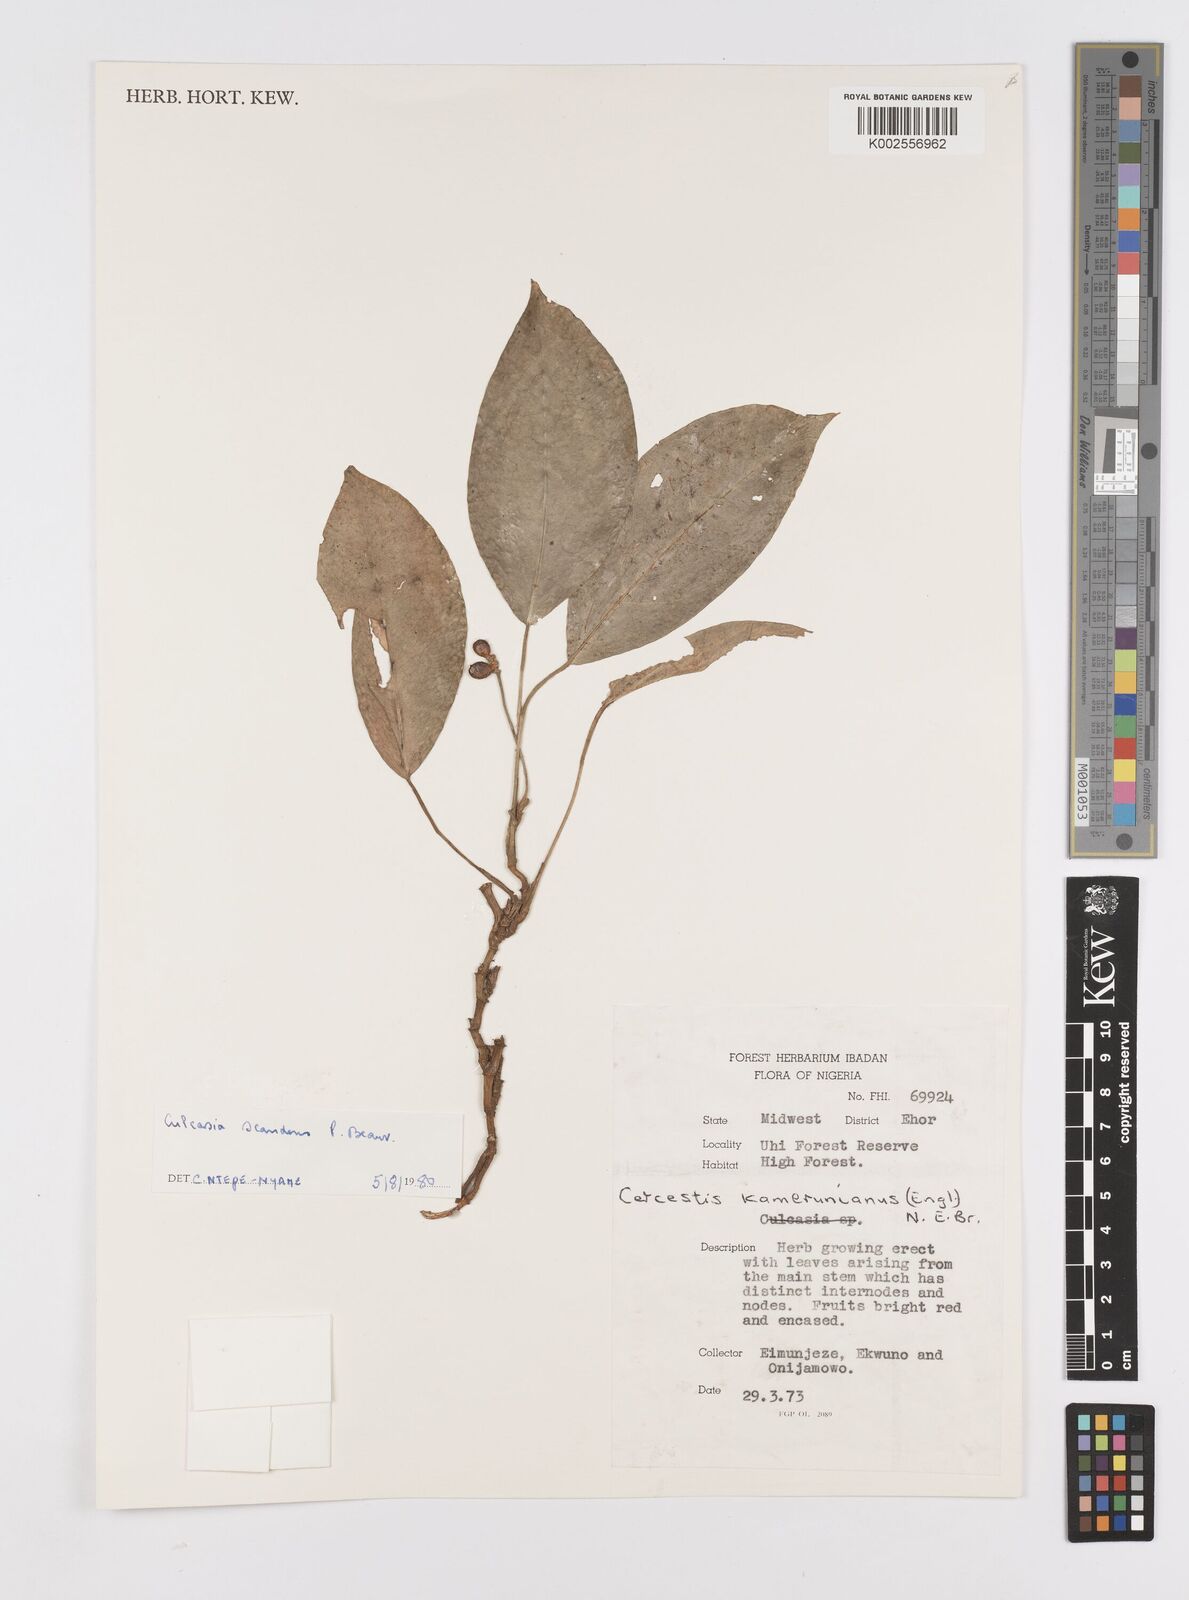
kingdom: Plantae
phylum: Tracheophyta
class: Liliopsida
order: Alismatales
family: Araceae
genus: Culcasia
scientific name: Culcasia scandens
